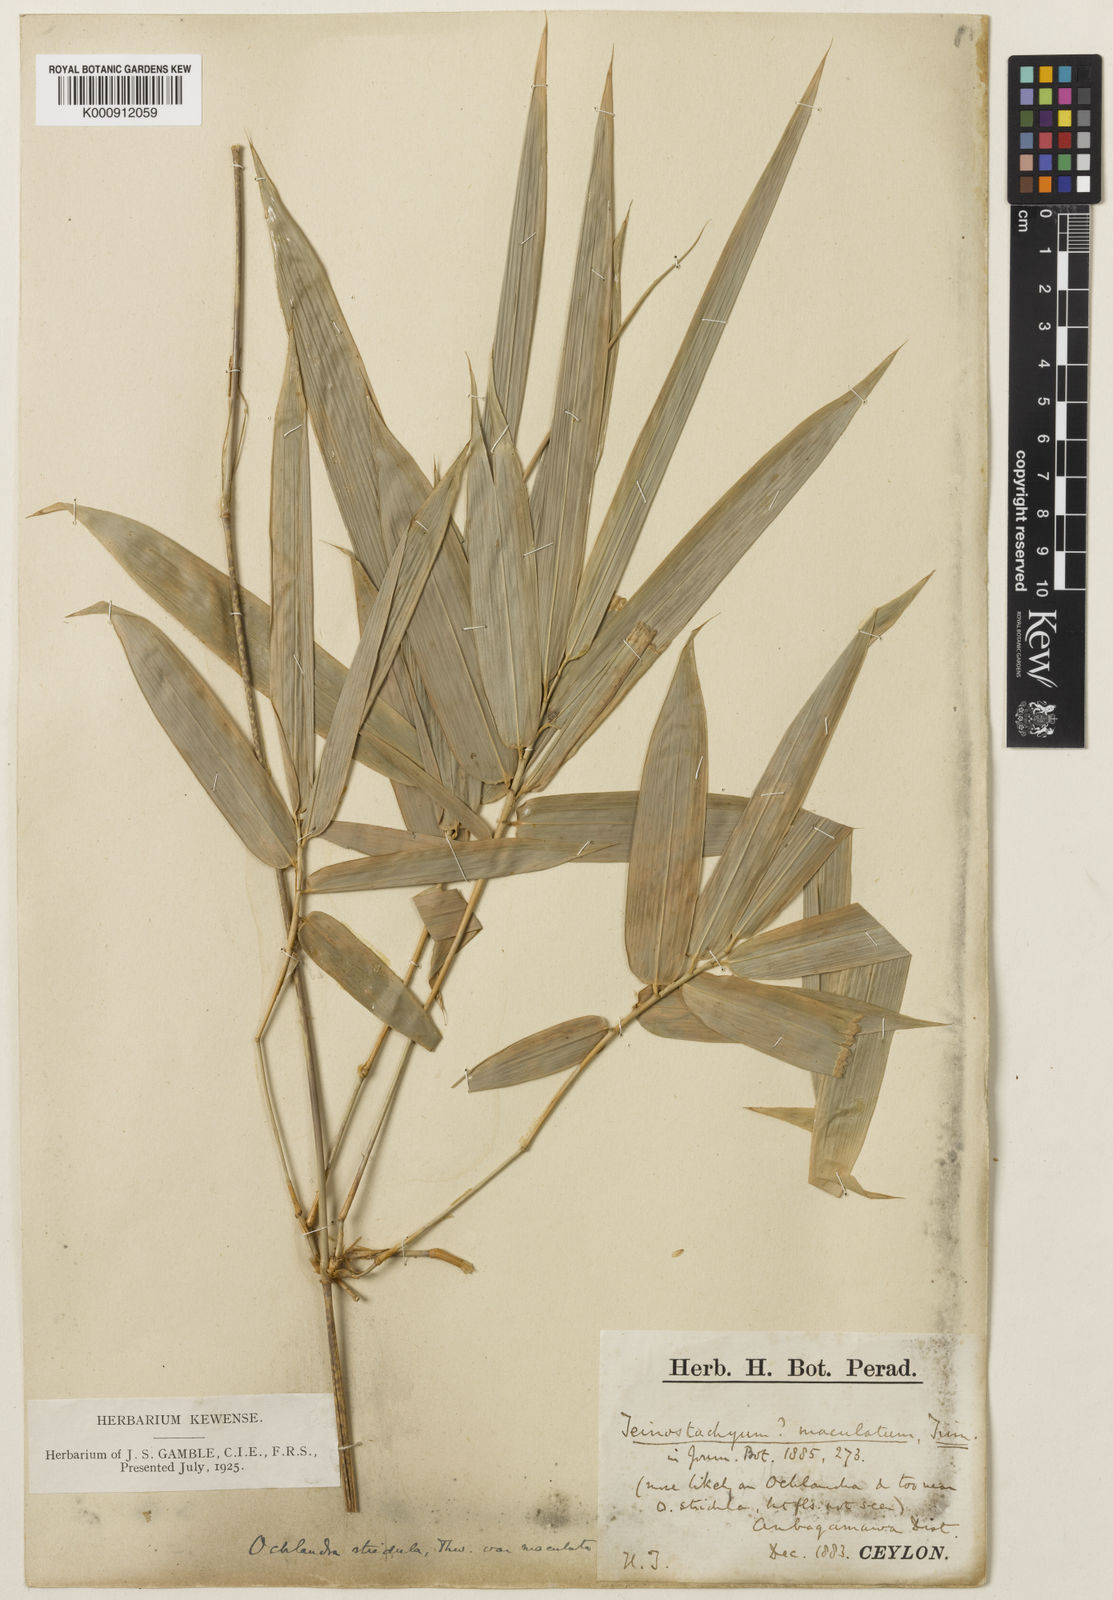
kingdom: Plantae
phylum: Tracheophyta
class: Liliopsida
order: Poales
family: Poaceae
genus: Ochlandra
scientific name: Ochlandra stridula
